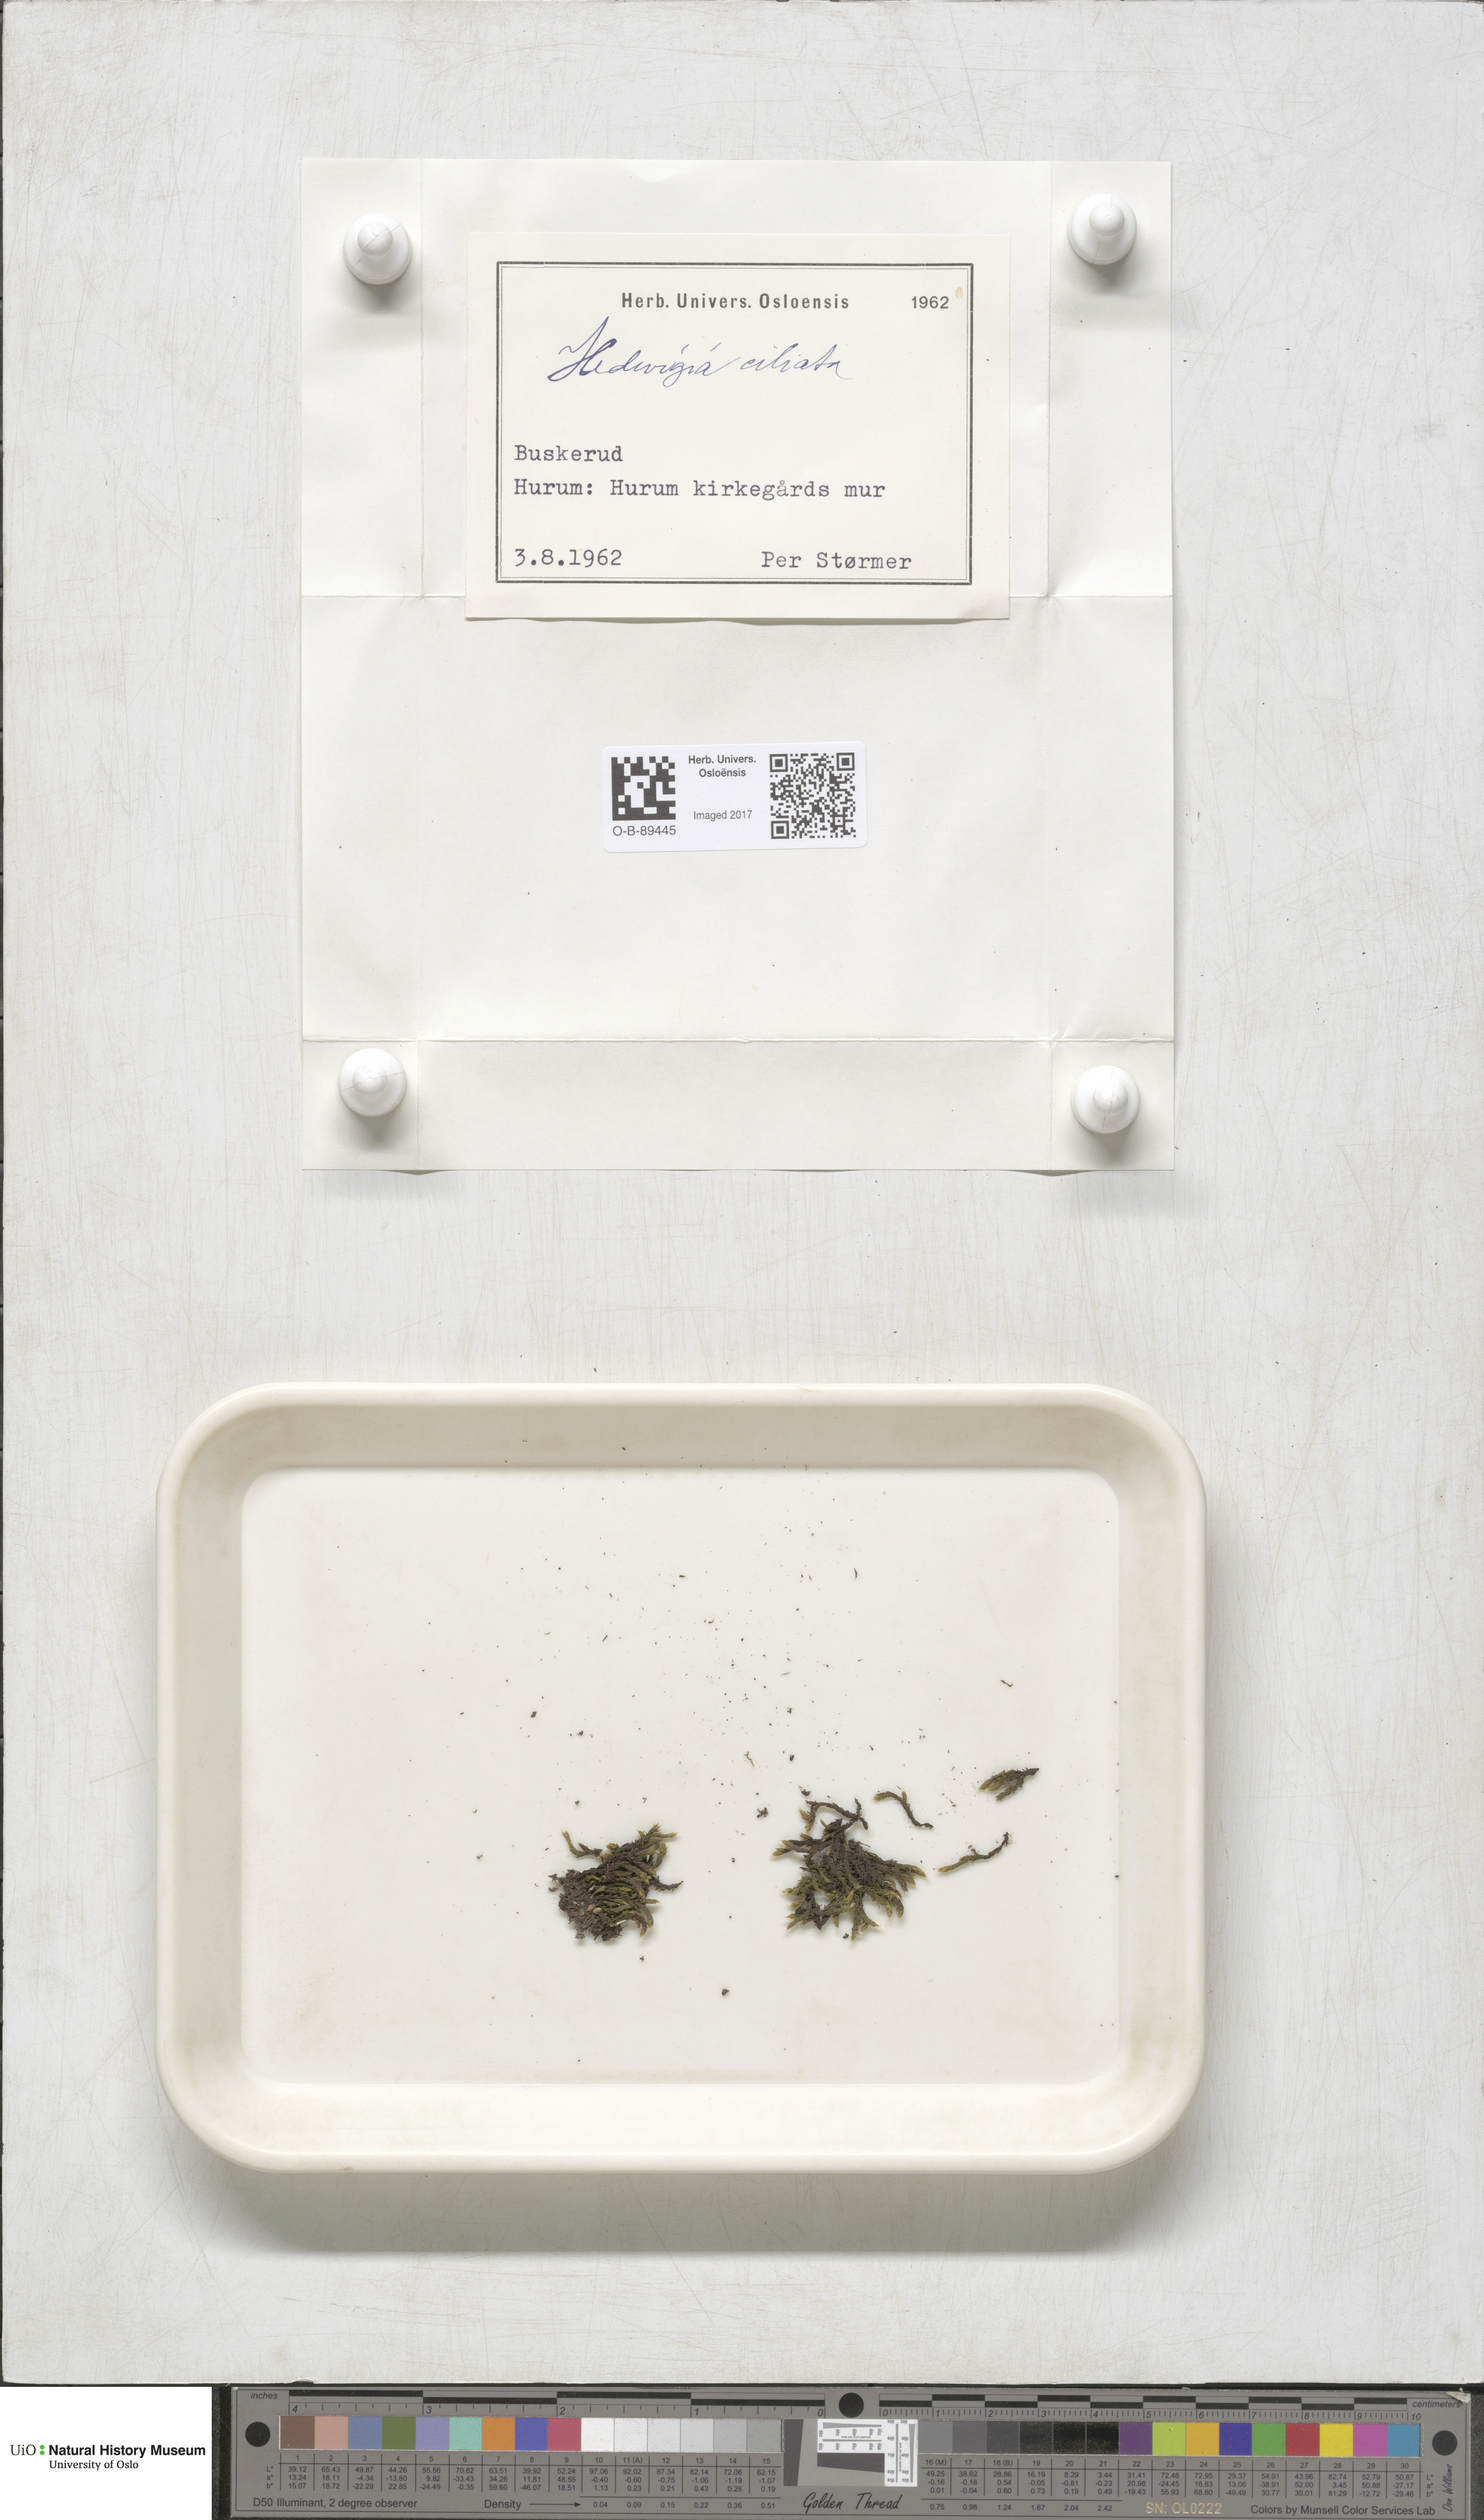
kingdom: Plantae
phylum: Bryophyta
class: Bryopsida
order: Hedwigiales
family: Hedwigiaceae
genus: Hedwigia
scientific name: Hedwigia ciliata
